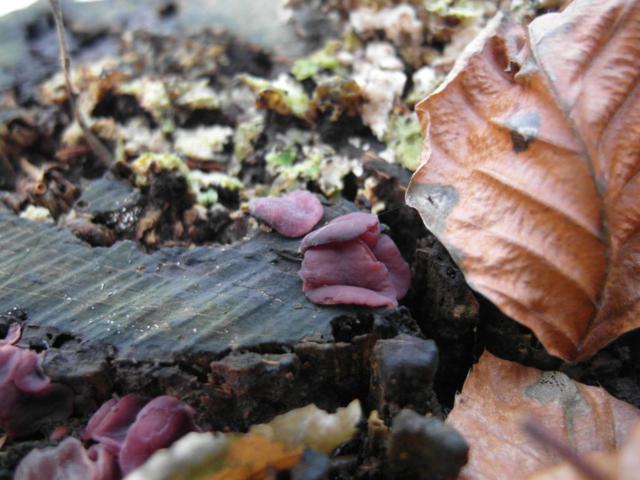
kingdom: Fungi
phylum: Ascomycota
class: Leotiomycetes
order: Helotiales
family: Gelatinodiscaceae
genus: Ascocoryne
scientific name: Ascocoryne cylichnium
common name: stor sejskive
